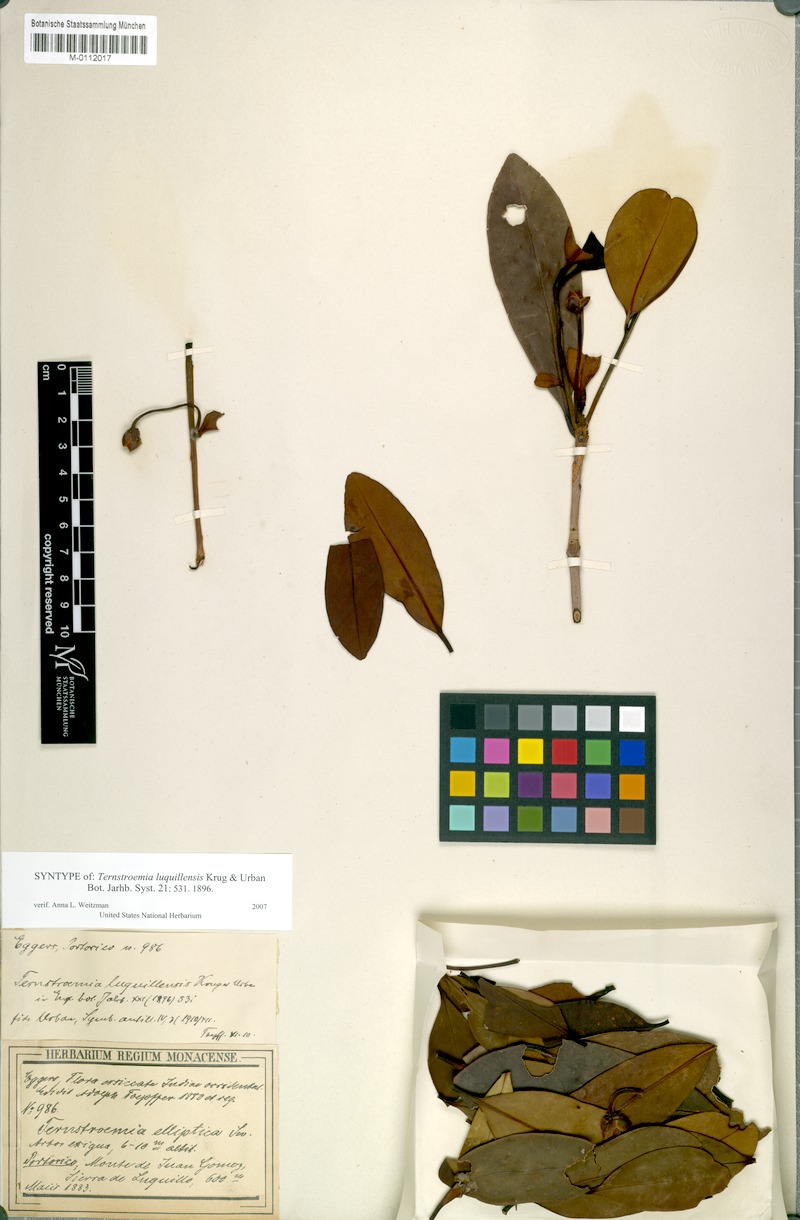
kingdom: Plantae
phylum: Tracheophyta
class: Magnoliopsida
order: Ericales
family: Pentaphylacaceae
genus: Ternstroemia
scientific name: Ternstroemia luquillensis
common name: Palo colorado
